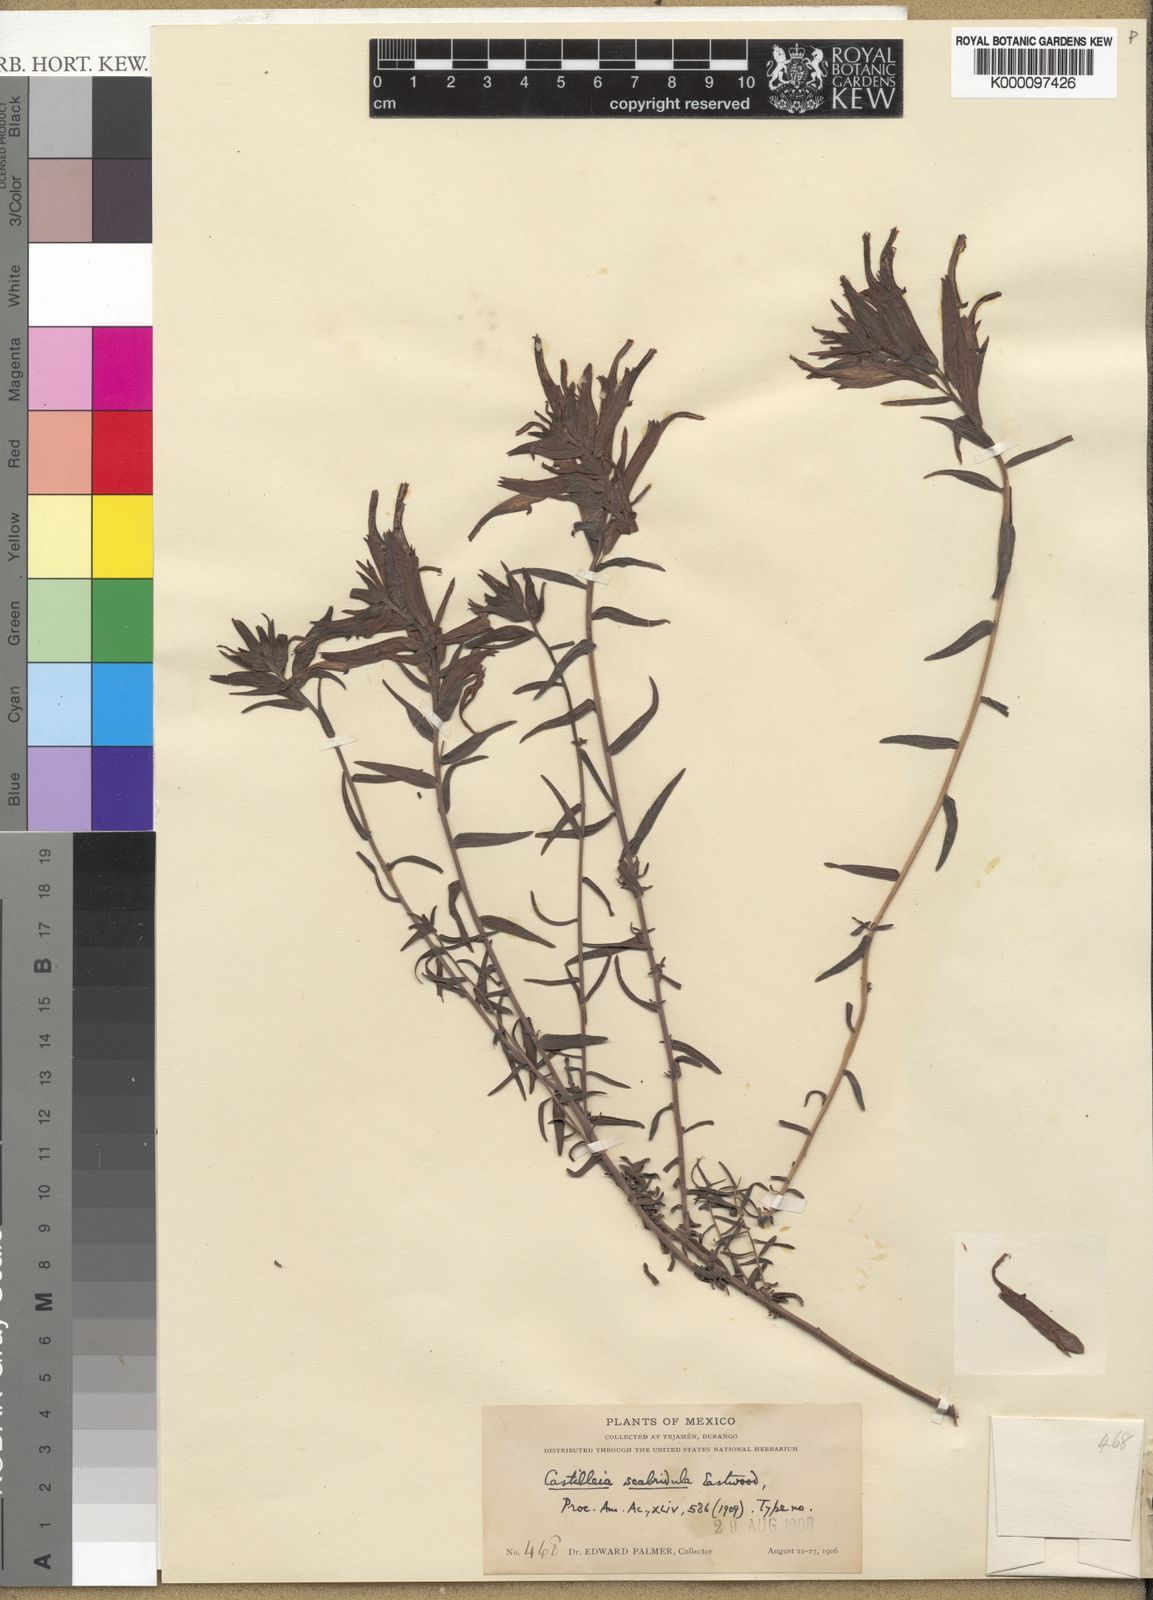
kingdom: Plantae
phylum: Tracheophyta
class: Magnoliopsida
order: Lamiales
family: Orobanchaceae
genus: Castilleja
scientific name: Castilleja tenuiflora
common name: Santa catalina indian paintbrush
